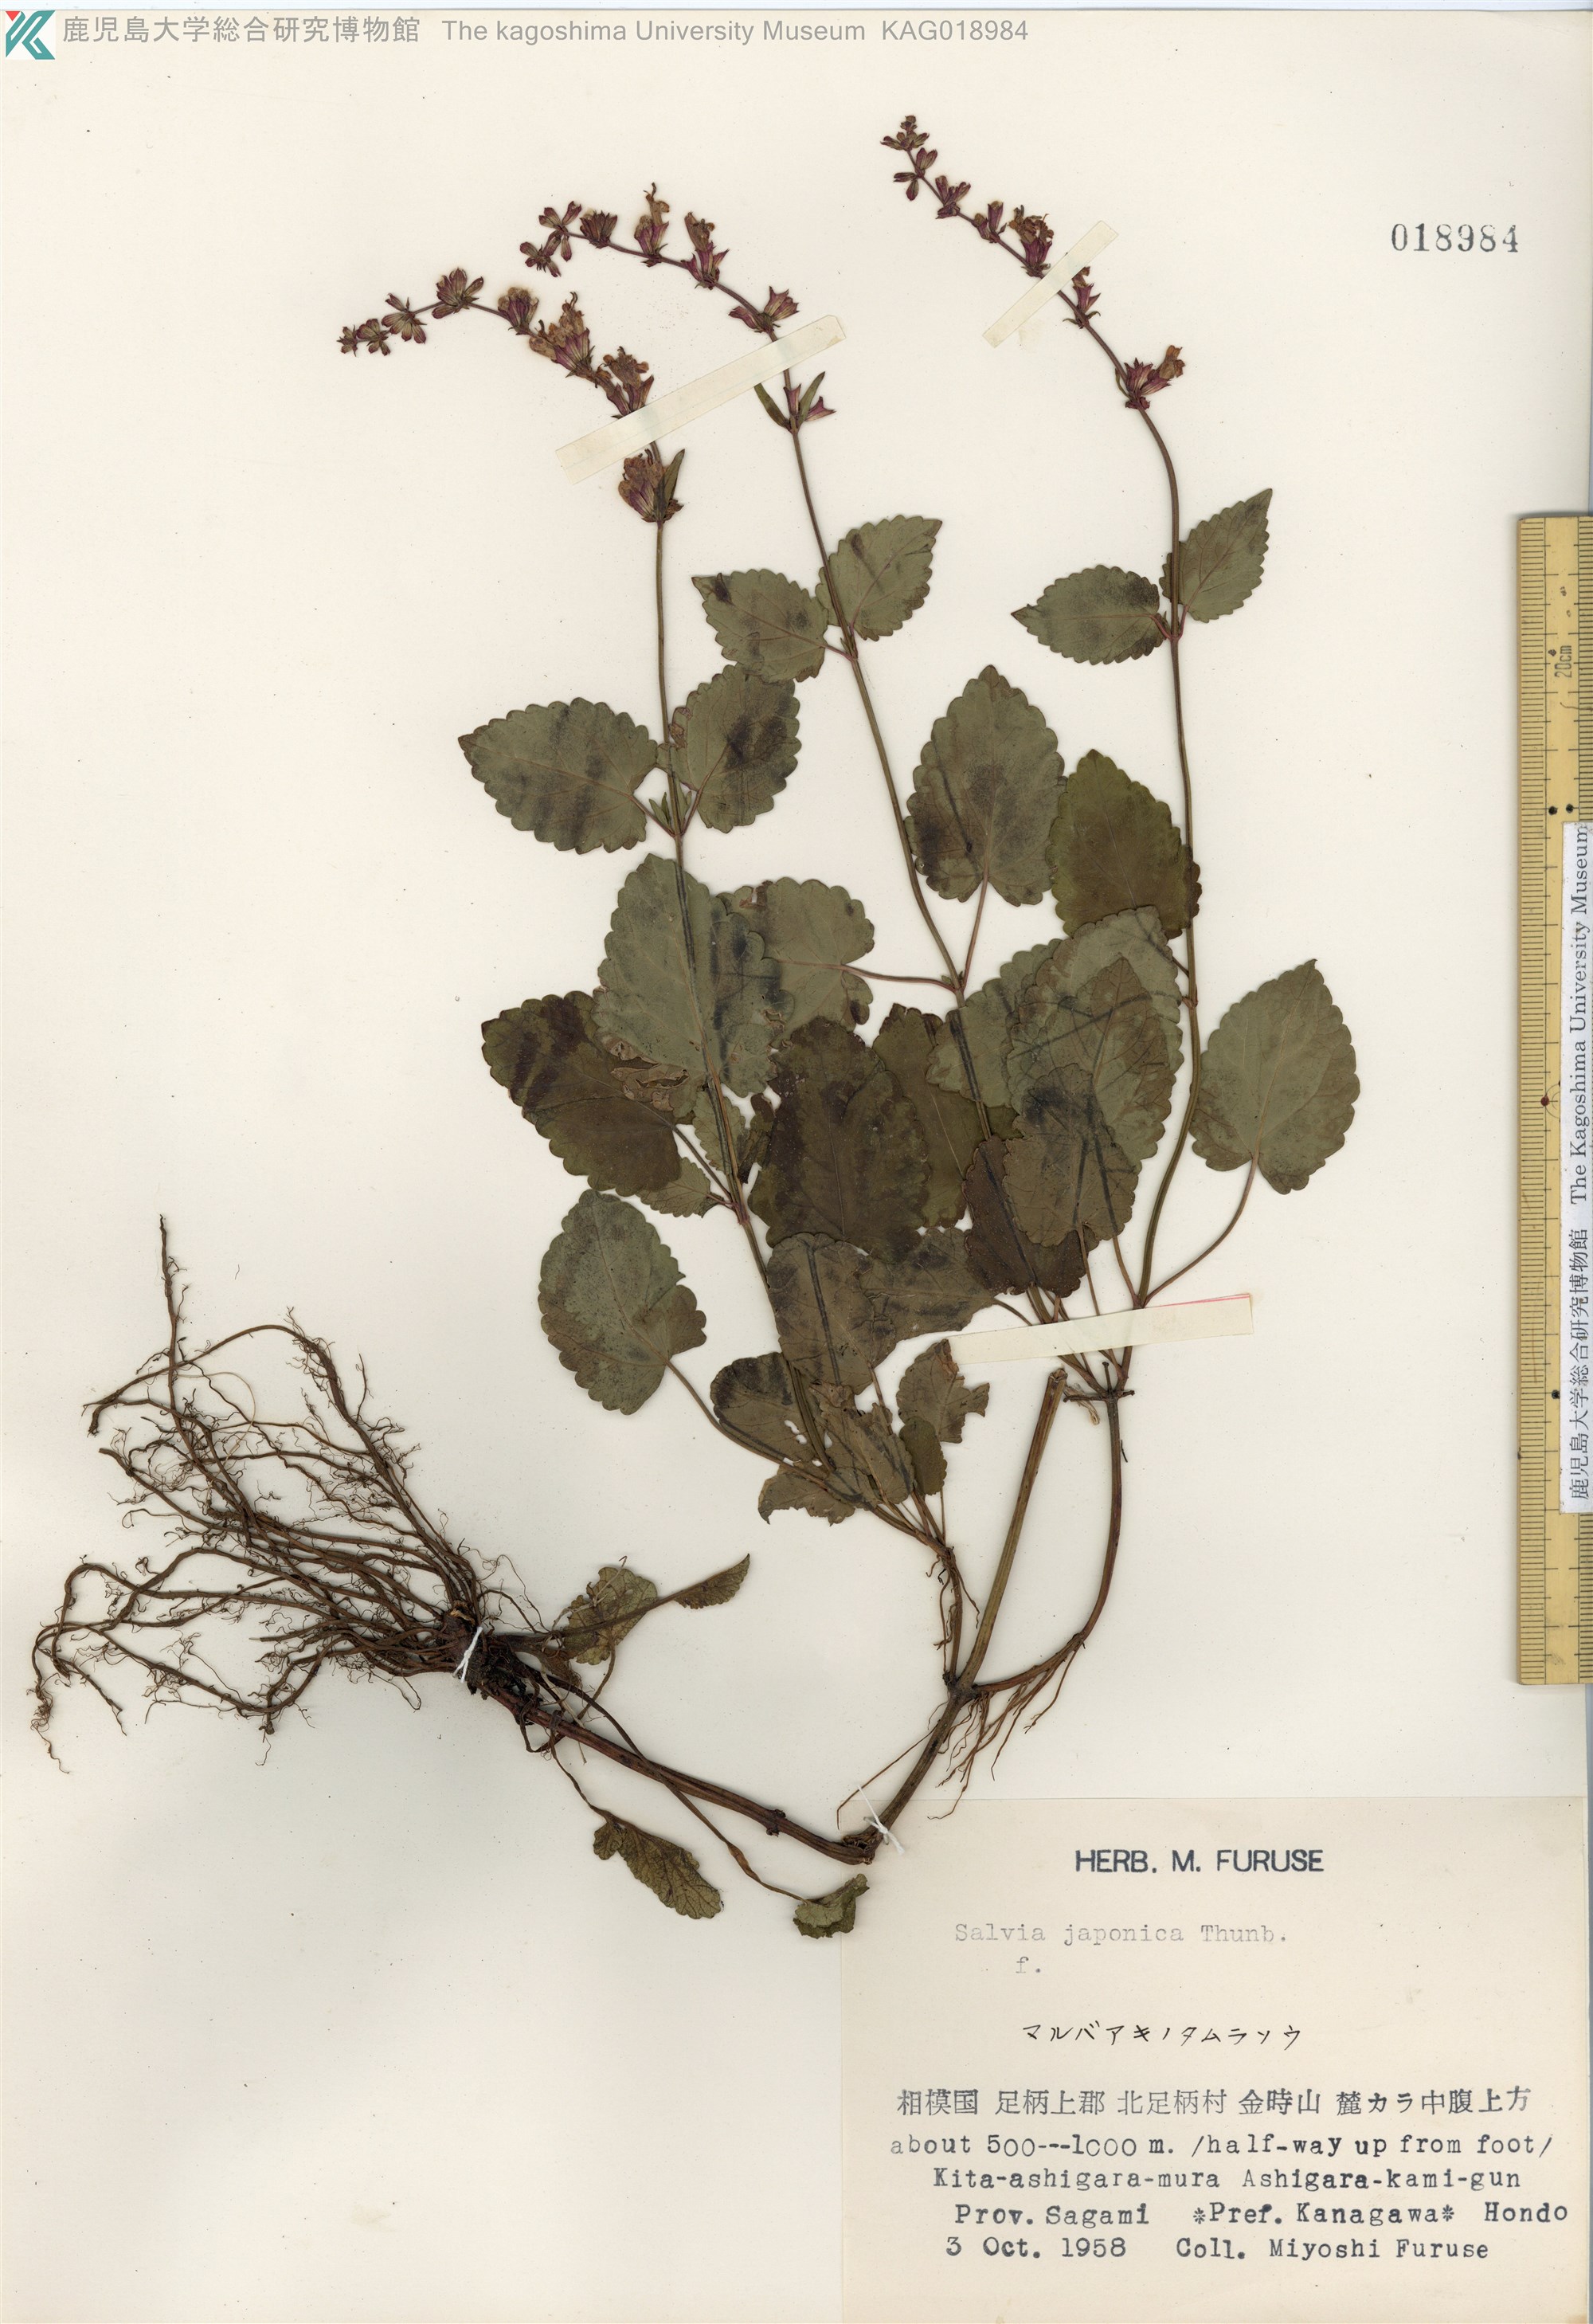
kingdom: Plantae
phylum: Tracheophyta
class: Magnoliopsida
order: Lamiales
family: Lamiaceae
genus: Salvia
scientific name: Salvia japonica
